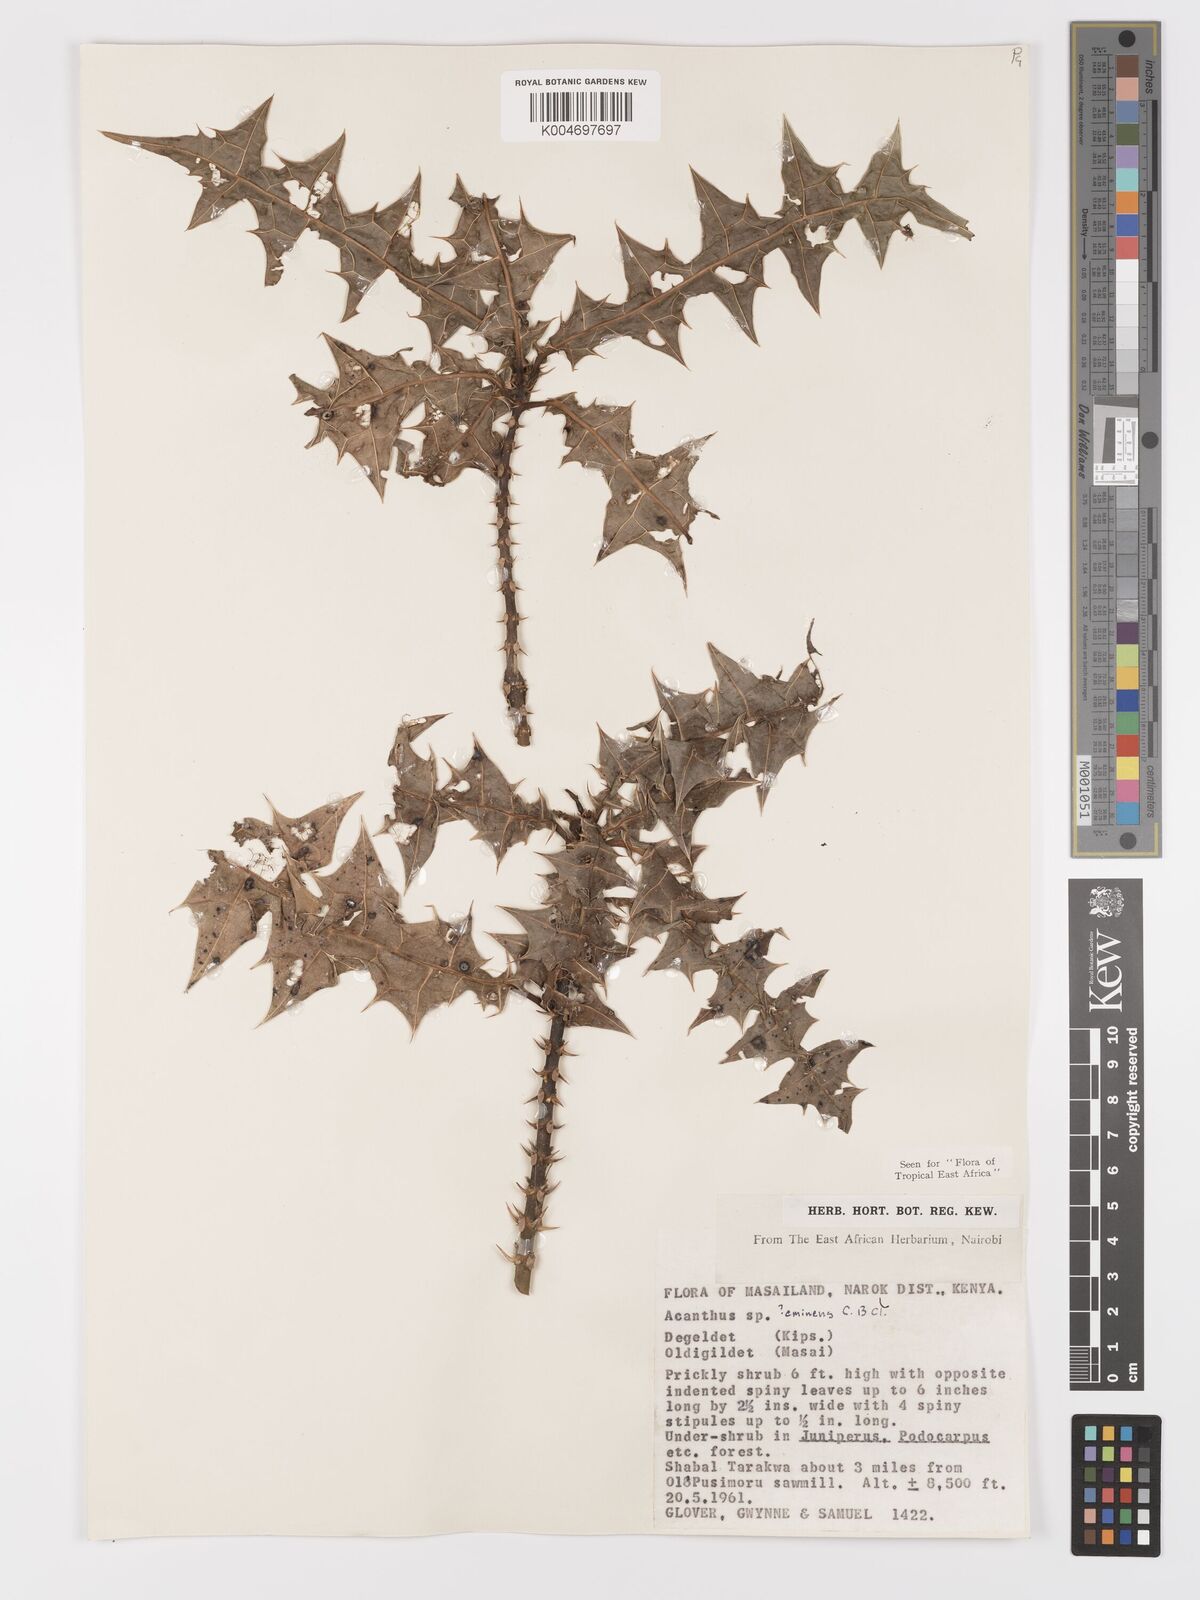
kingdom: Plantae
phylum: Tracheophyta
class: Magnoliopsida
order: Lamiales
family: Acanthaceae
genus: Acanthus
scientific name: Acanthus eminens
